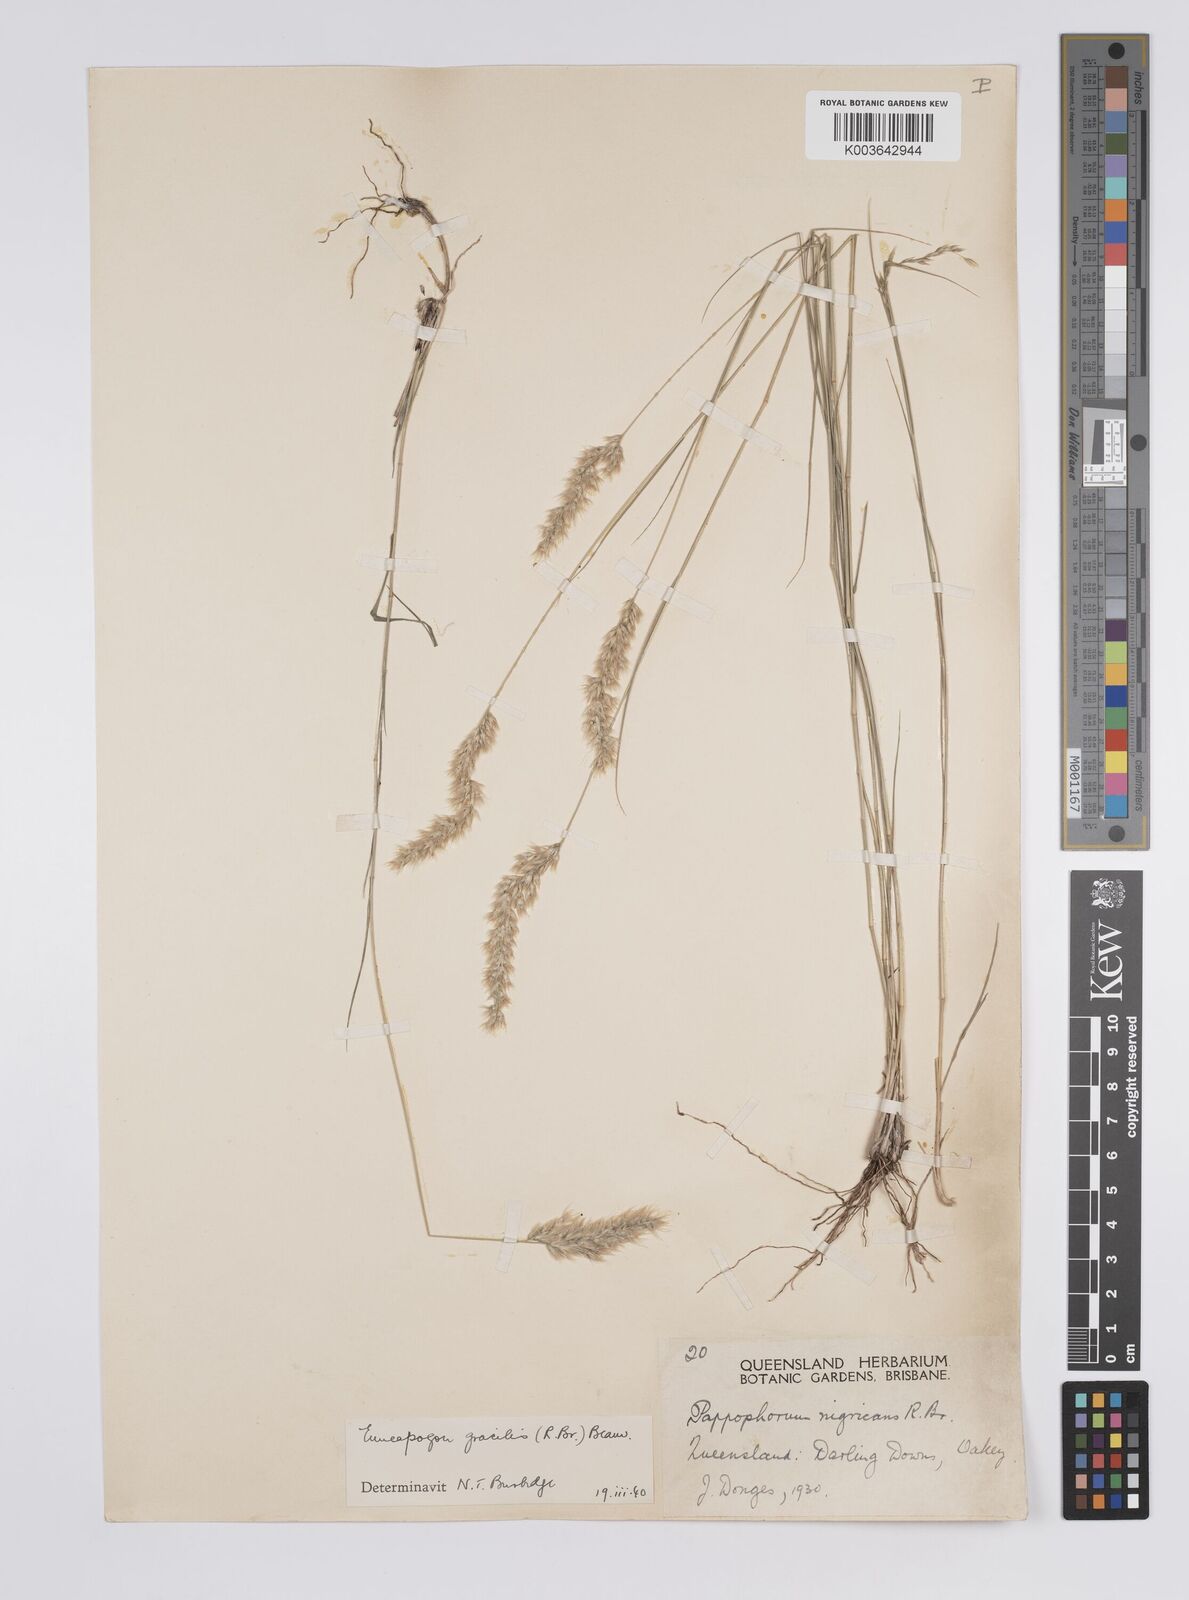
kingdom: Plantae
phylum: Tracheophyta
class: Liliopsida
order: Poales
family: Poaceae
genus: Enneapogon
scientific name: Enneapogon gracilis
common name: Slender bottle-washers
